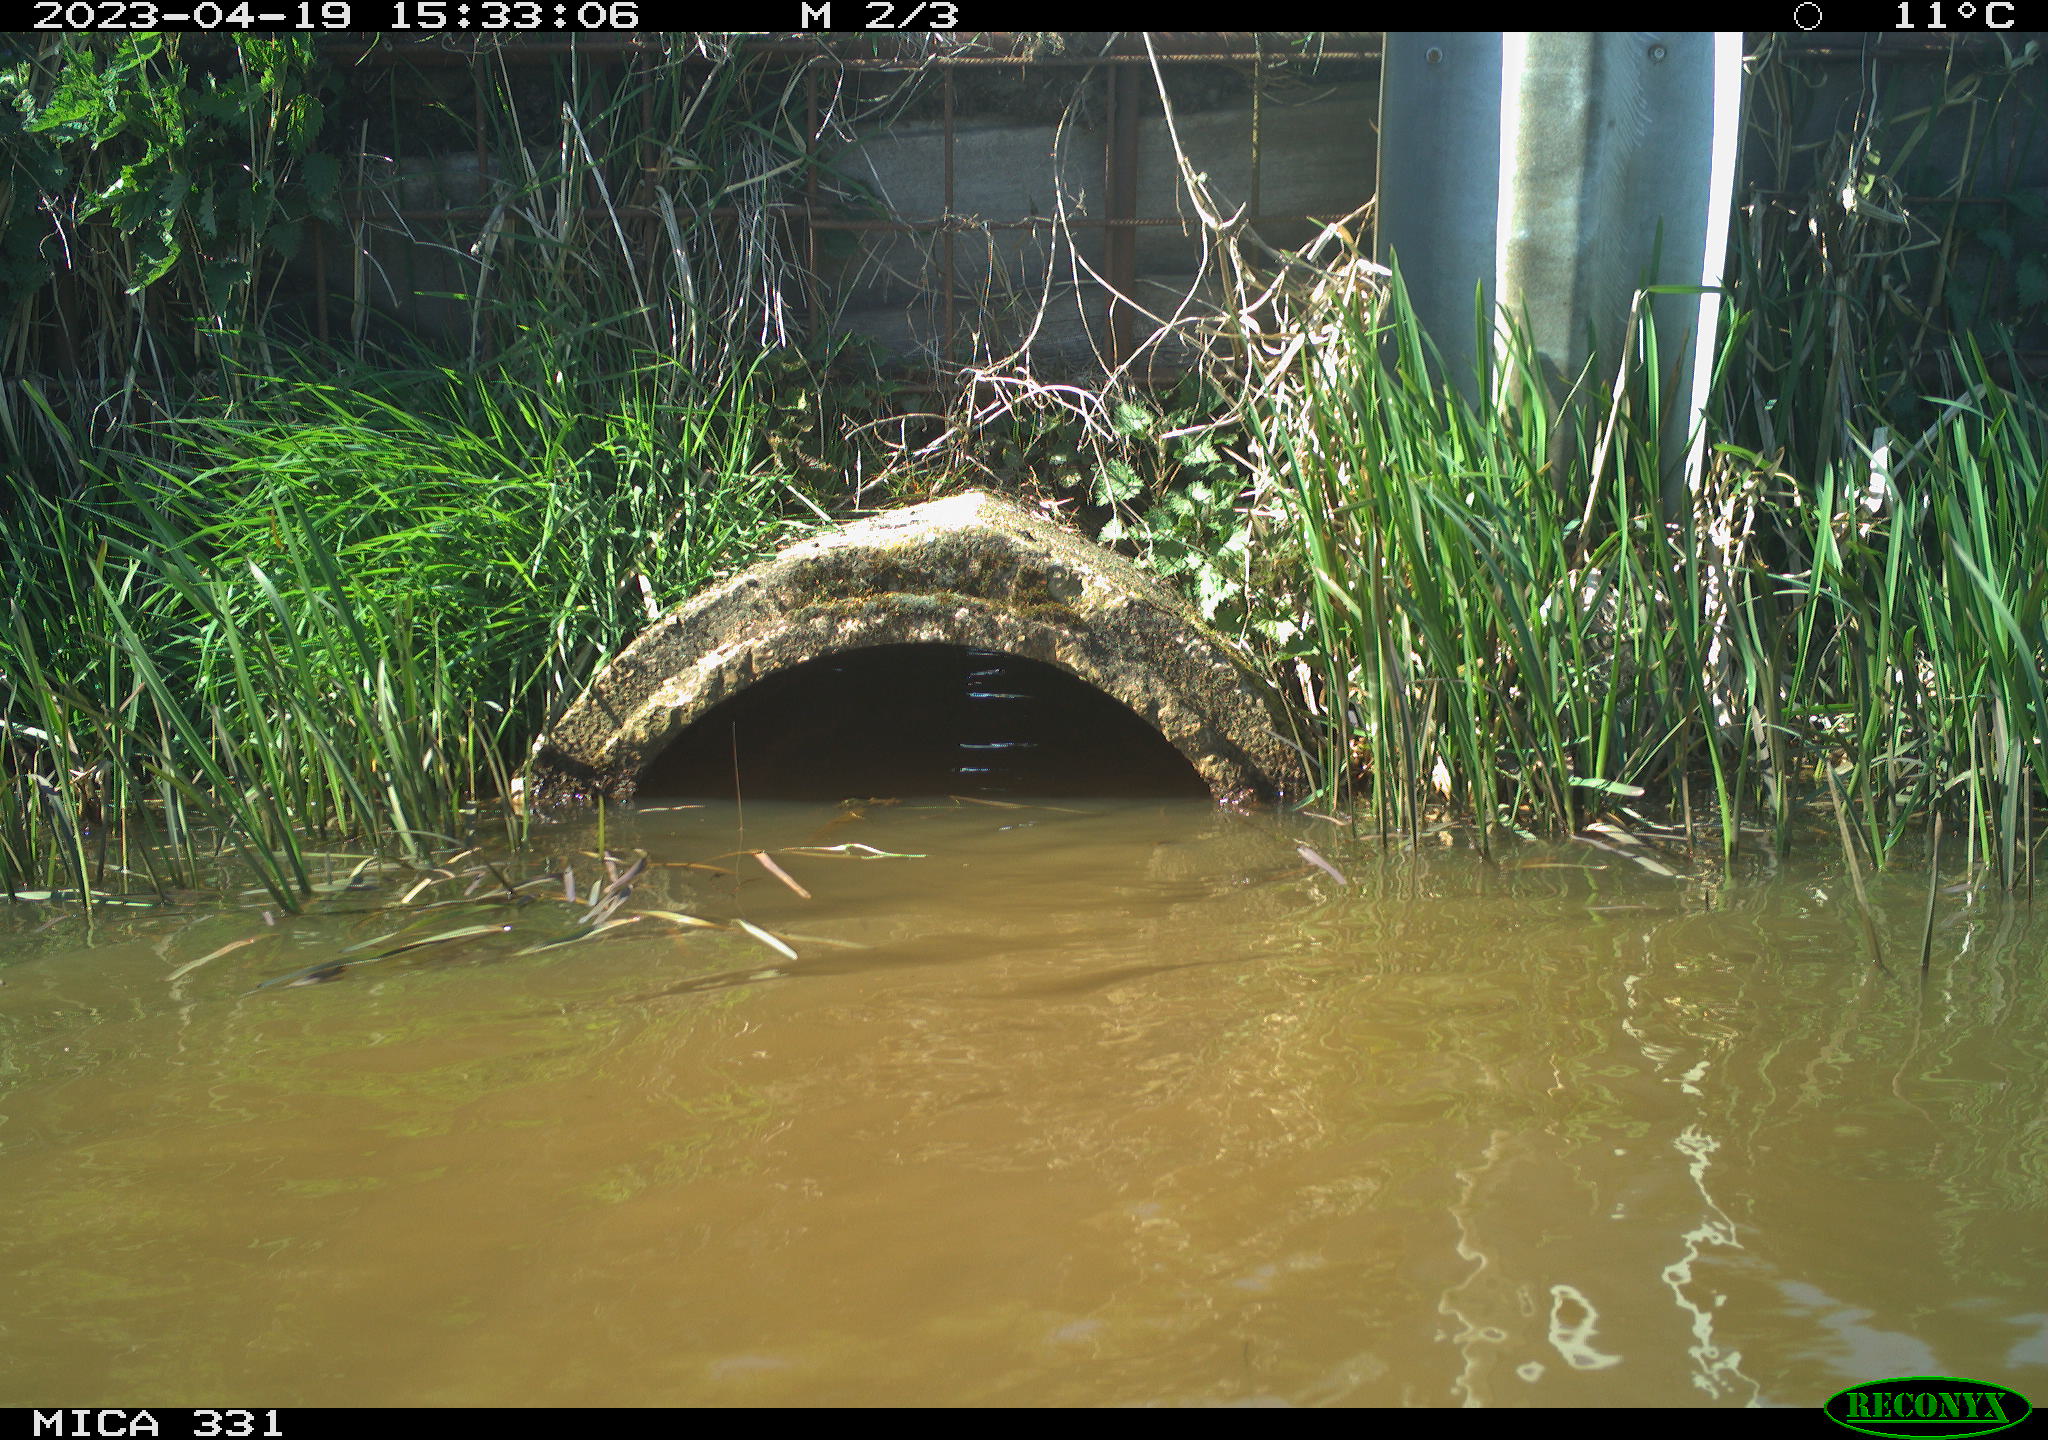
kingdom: Animalia
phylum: Chordata
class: Aves
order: Gruiformes
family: Rallidae
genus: Fulica
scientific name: Fulica atra
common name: Eurasian coot
